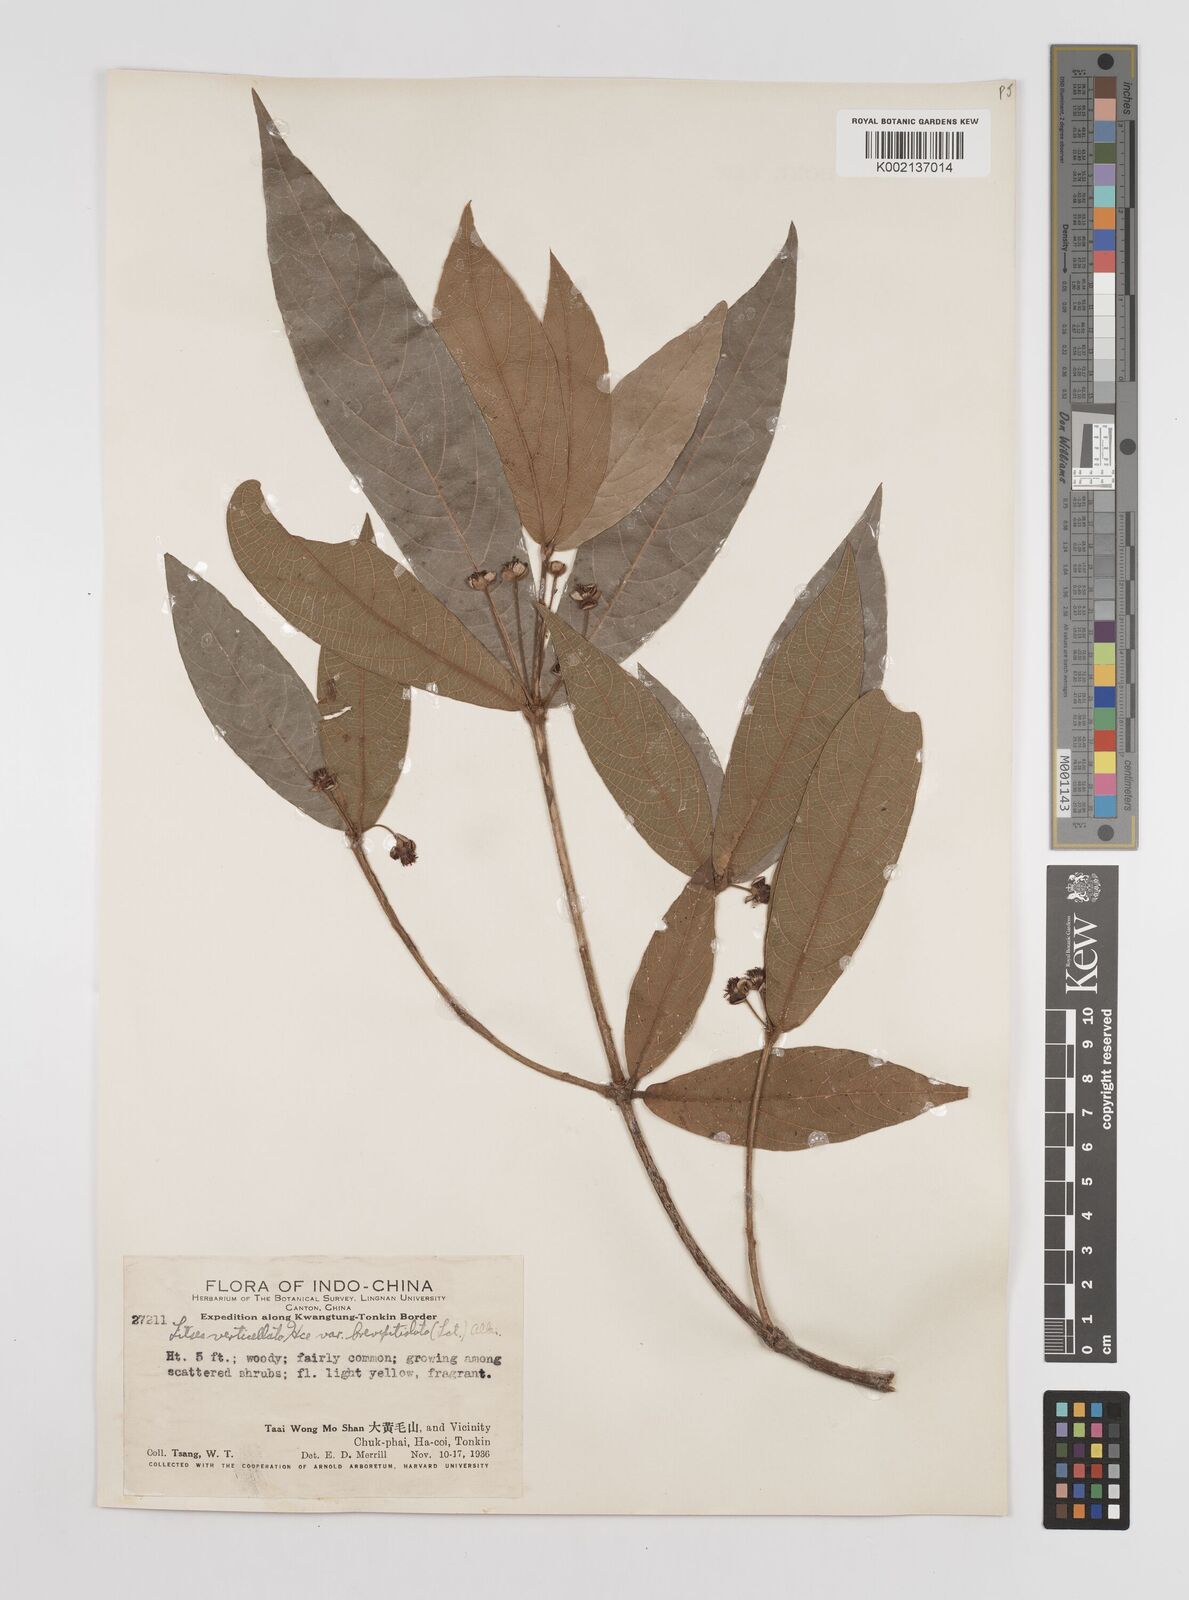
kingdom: Plantae
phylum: Tracheophyta
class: Magnoliopsida
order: Laurales
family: Lauraceae
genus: Litsea
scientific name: Litsea verticillata
